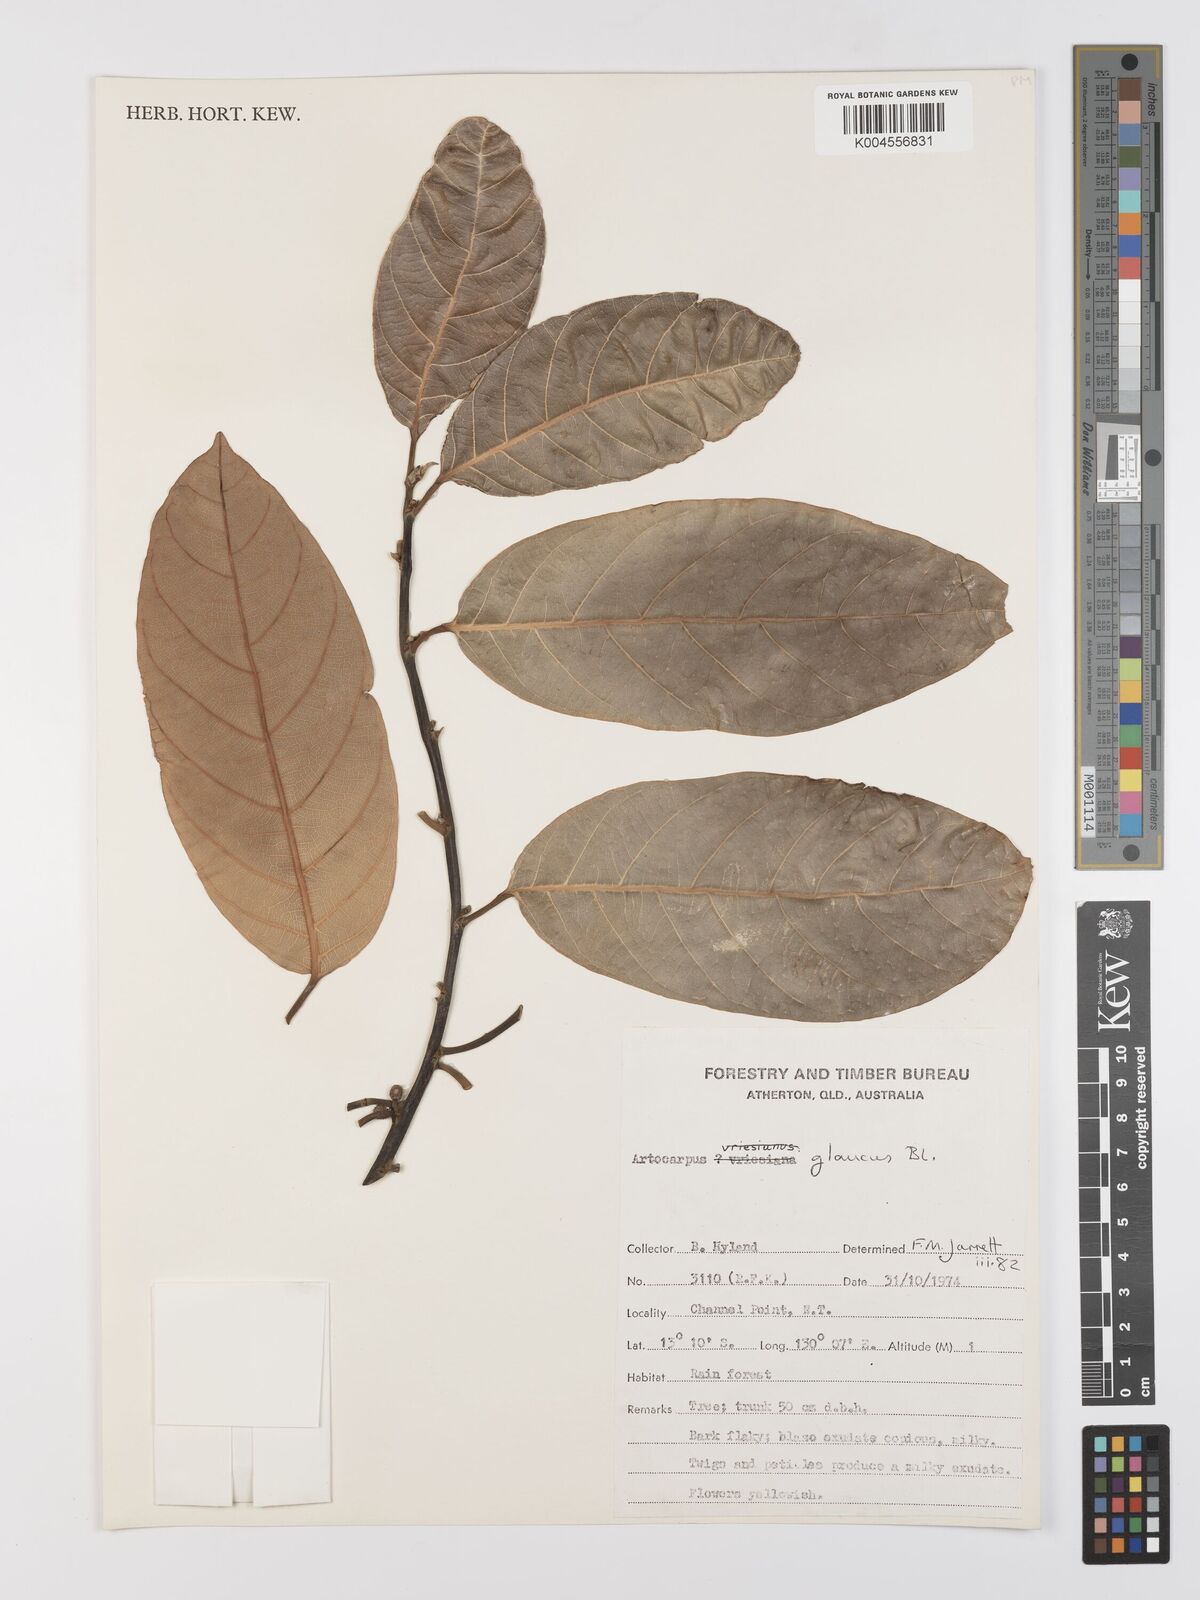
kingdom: Plantae
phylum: Tracheophyta
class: Magnoliopsida
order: Rosales
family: Moraceae
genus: Artocarpus
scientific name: Artocarpus glaucus
